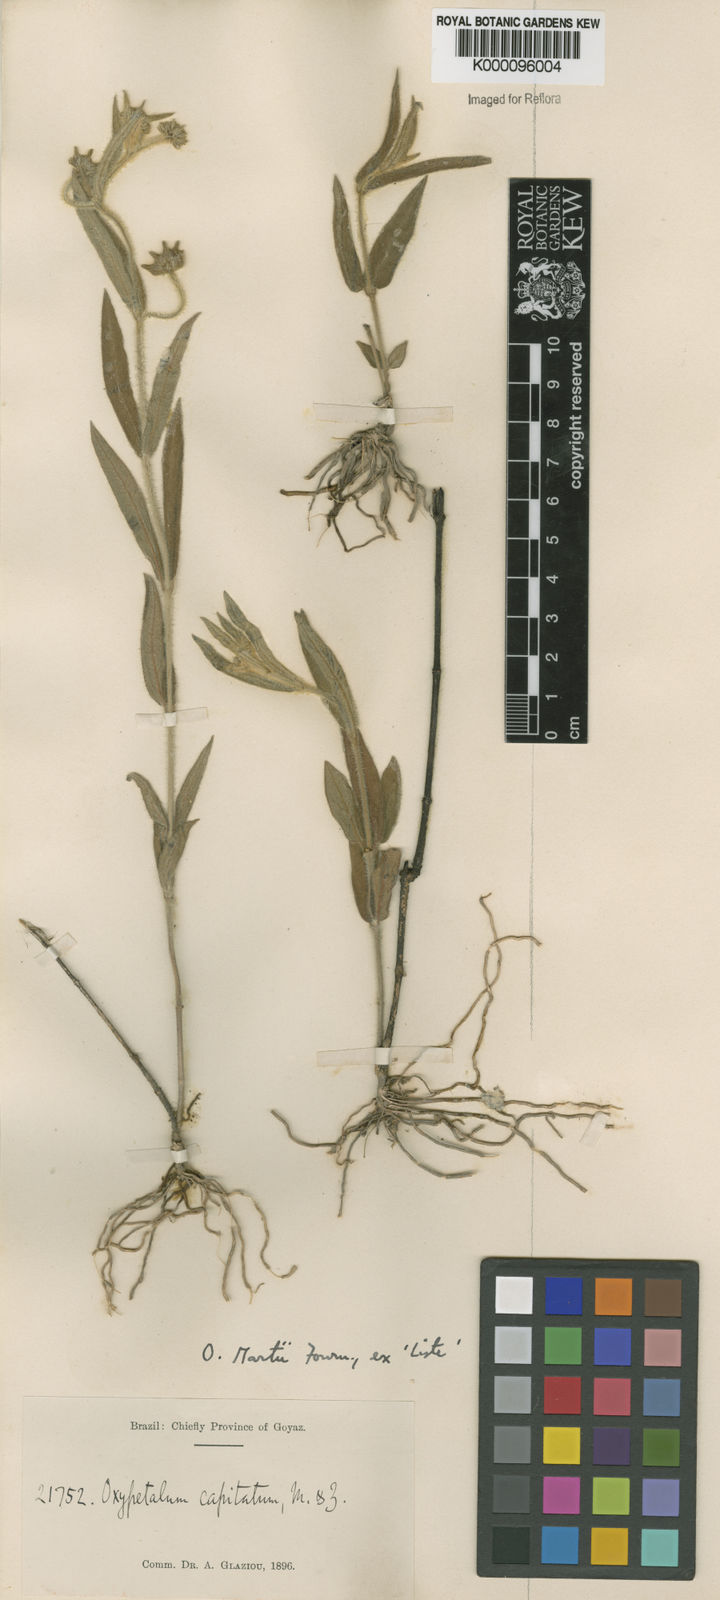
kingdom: Plantae
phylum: Tracheophyta
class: Magnoliopsida
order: Gentianales
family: Apocynaceae
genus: Oxypetalum
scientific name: Oxypetalum martii
